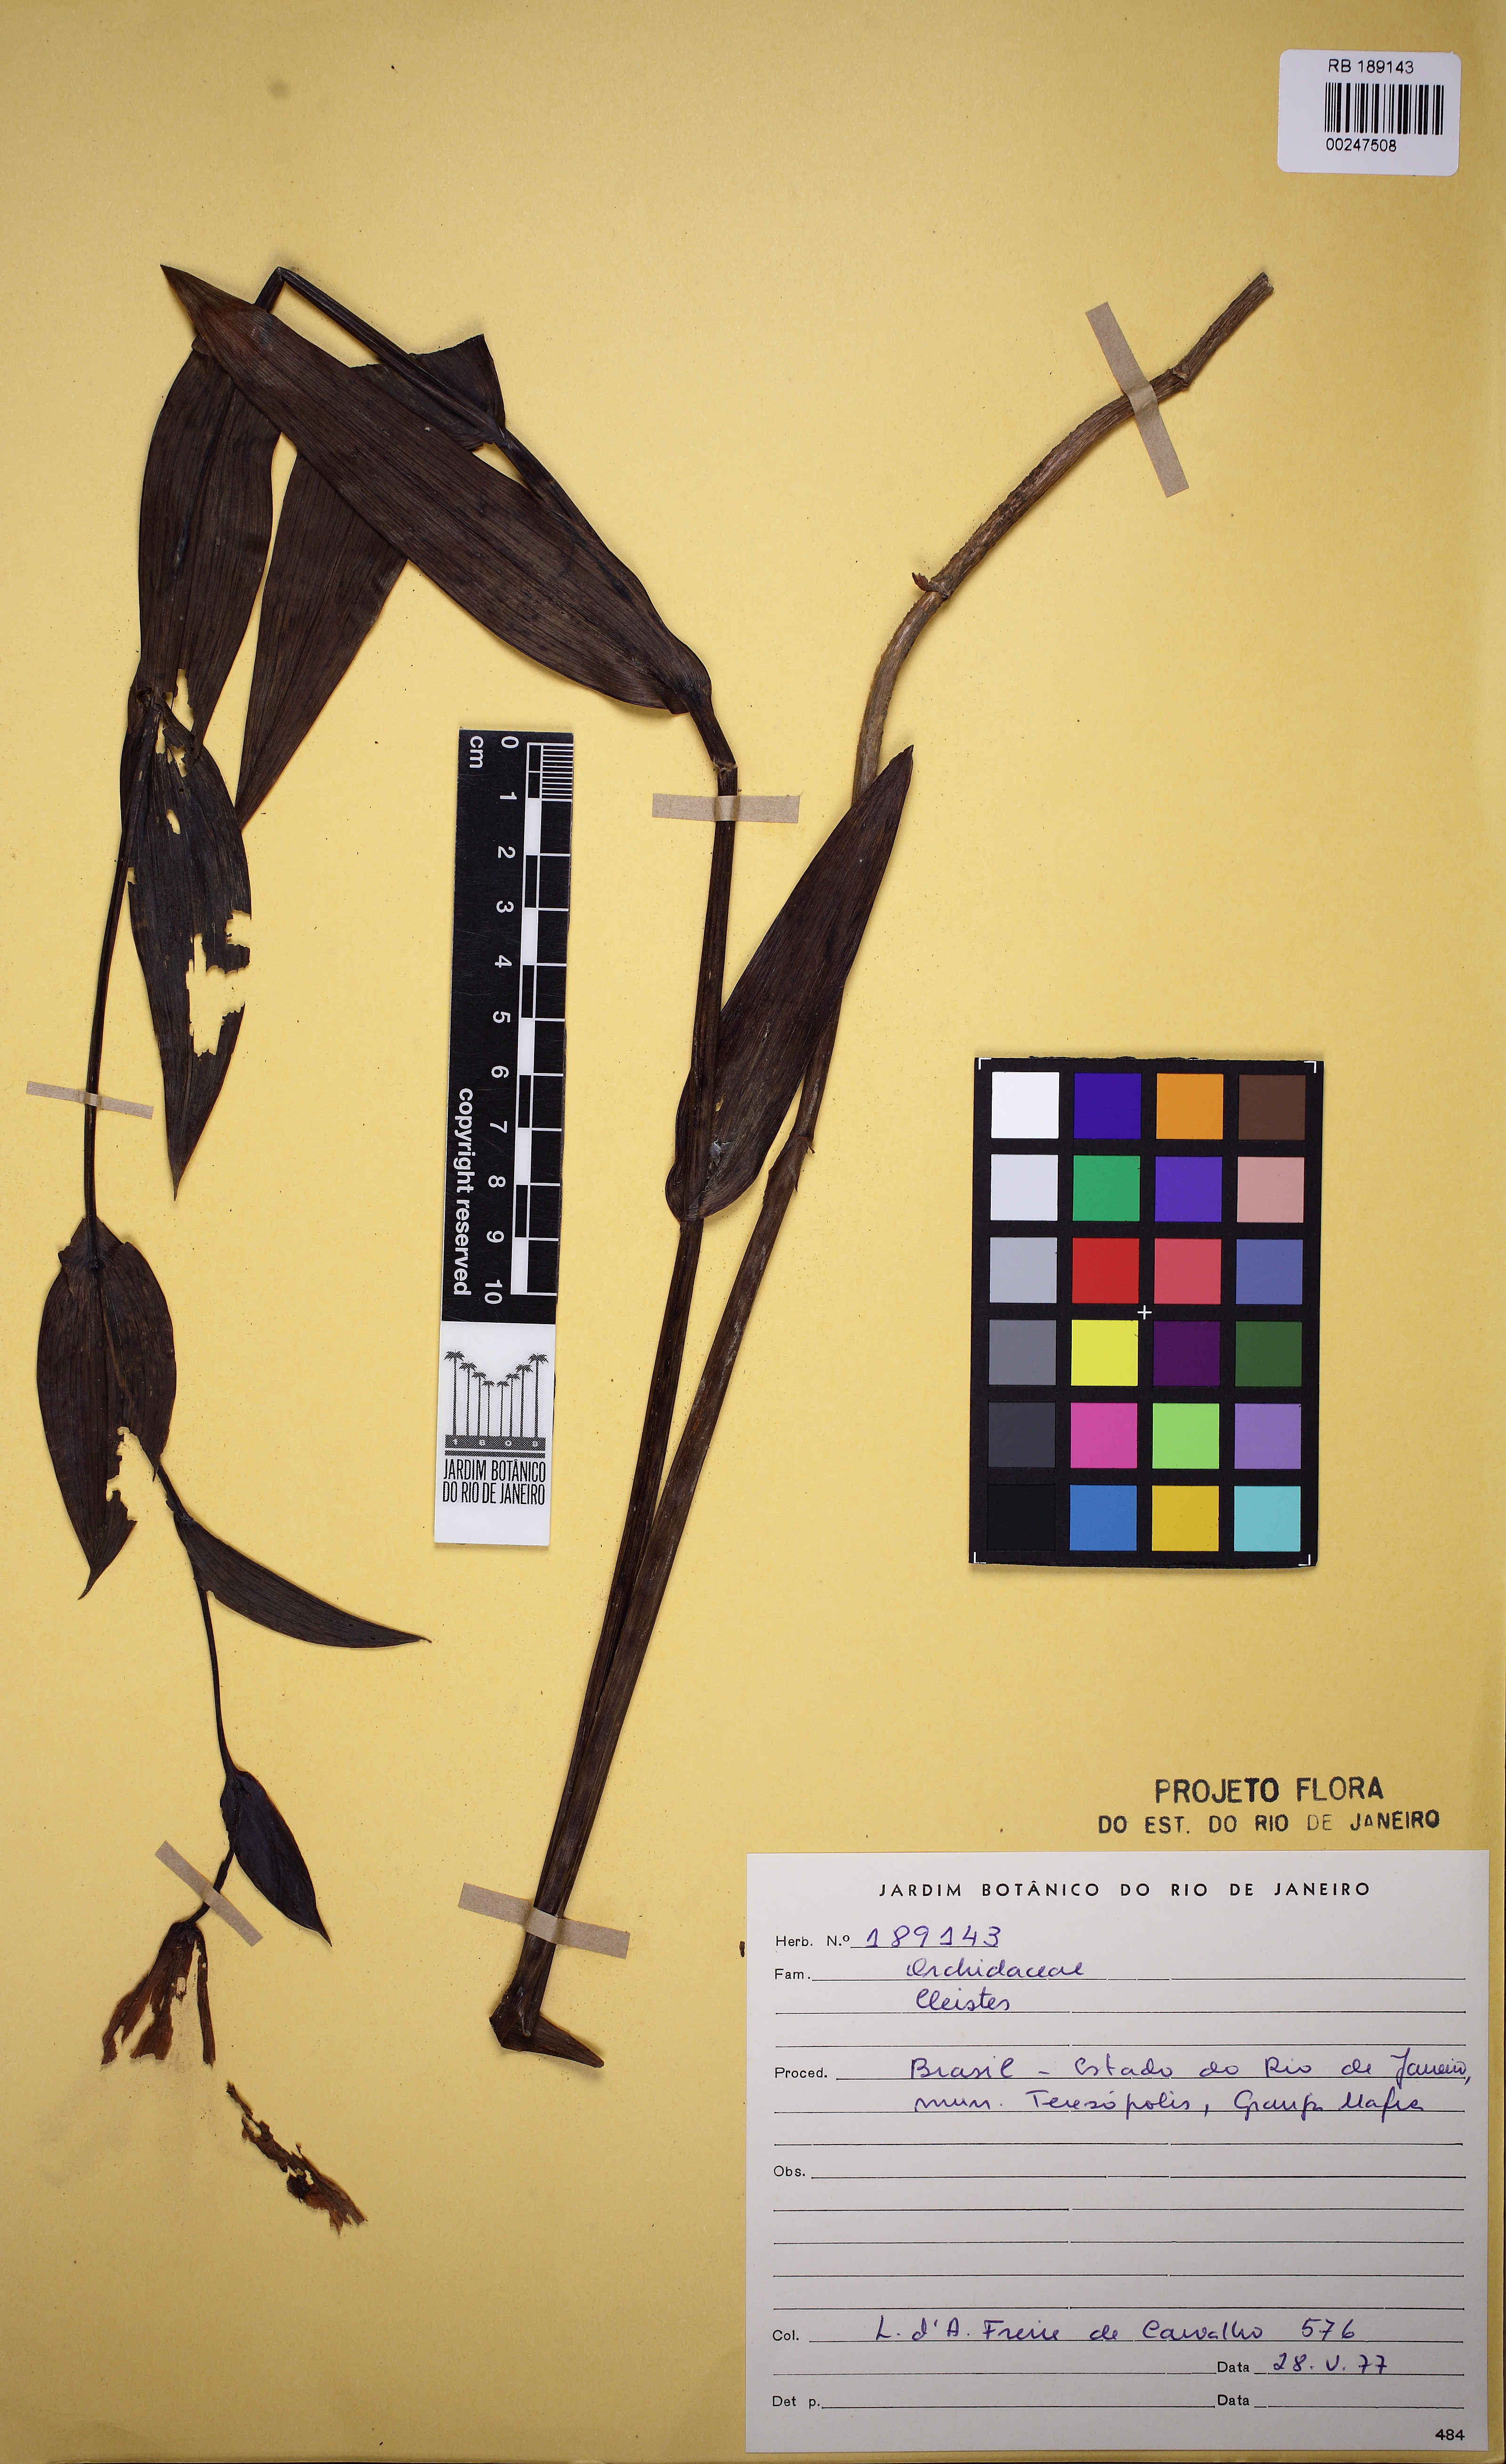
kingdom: Plantae
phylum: Tracheophyta
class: Liliopsida
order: Asparagales
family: Orchidaceae
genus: Cleistes
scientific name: Cleistes
